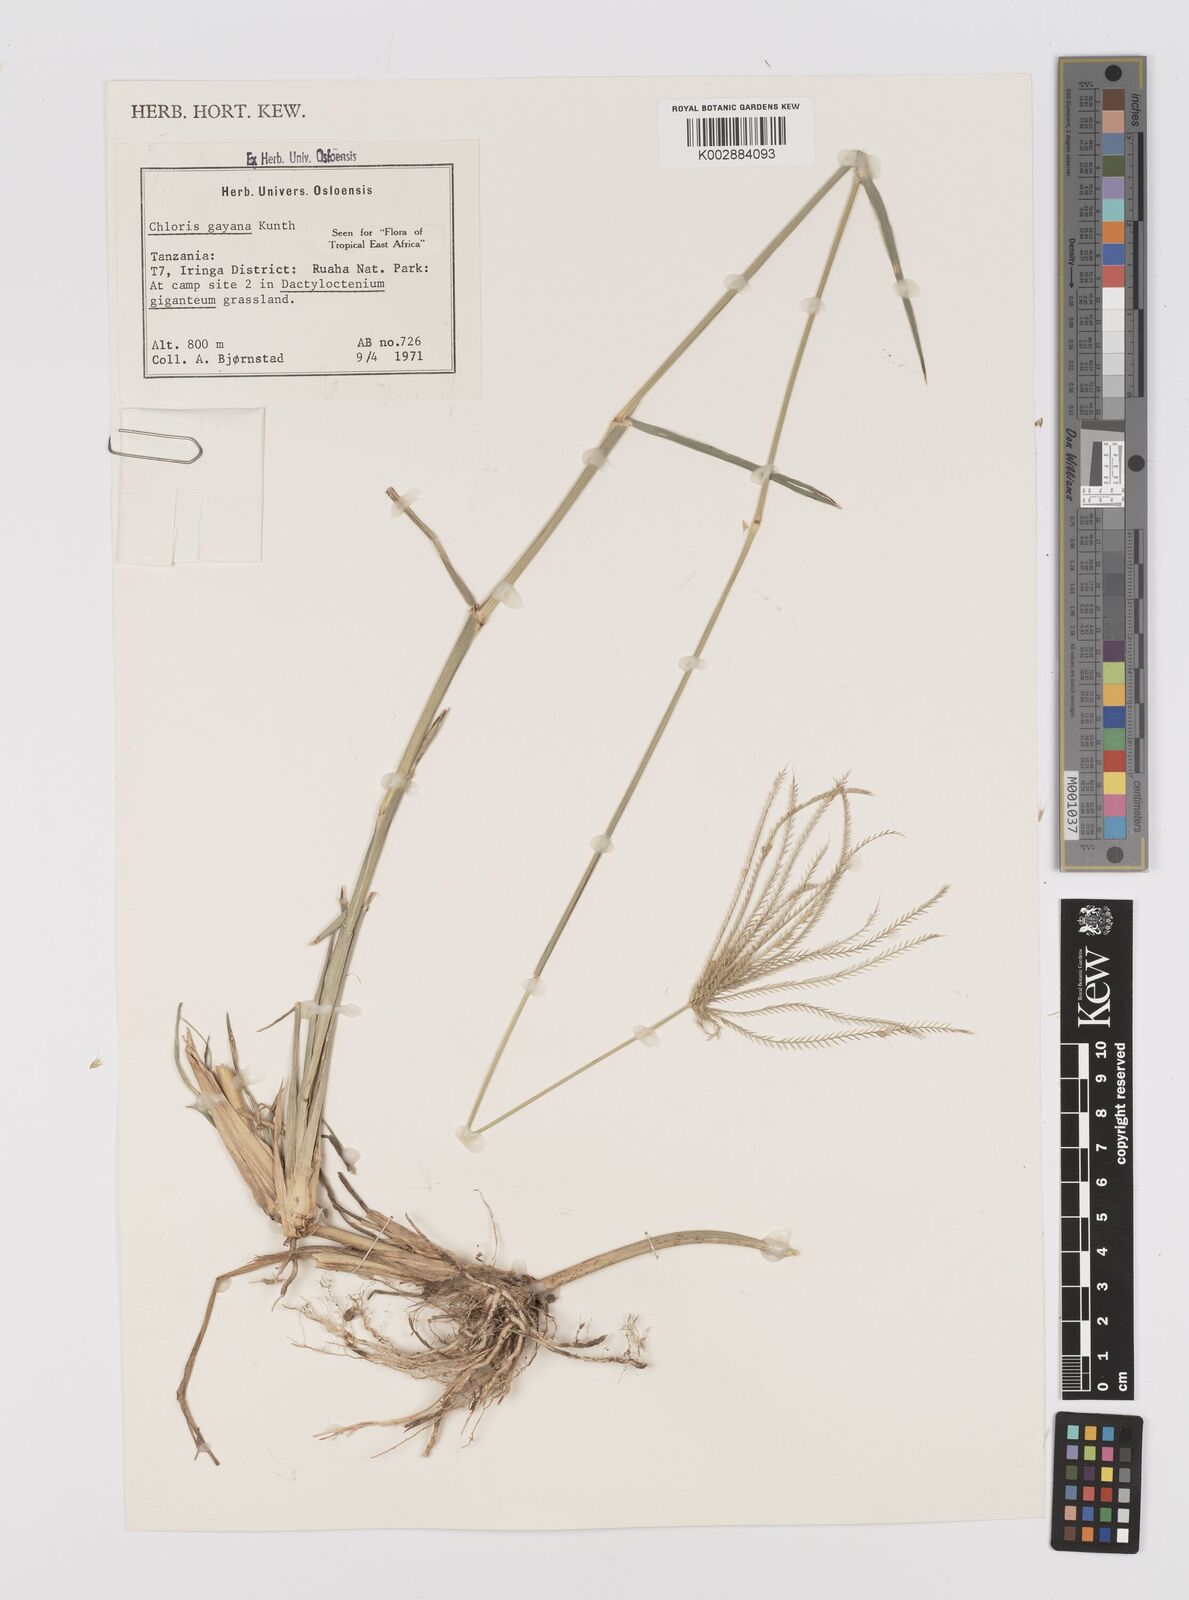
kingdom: Plantae
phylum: Tracheophyta
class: Liliopsida
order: Poales
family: Poaceae
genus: Chloris
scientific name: Chloris gayana
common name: Rhodes grass
